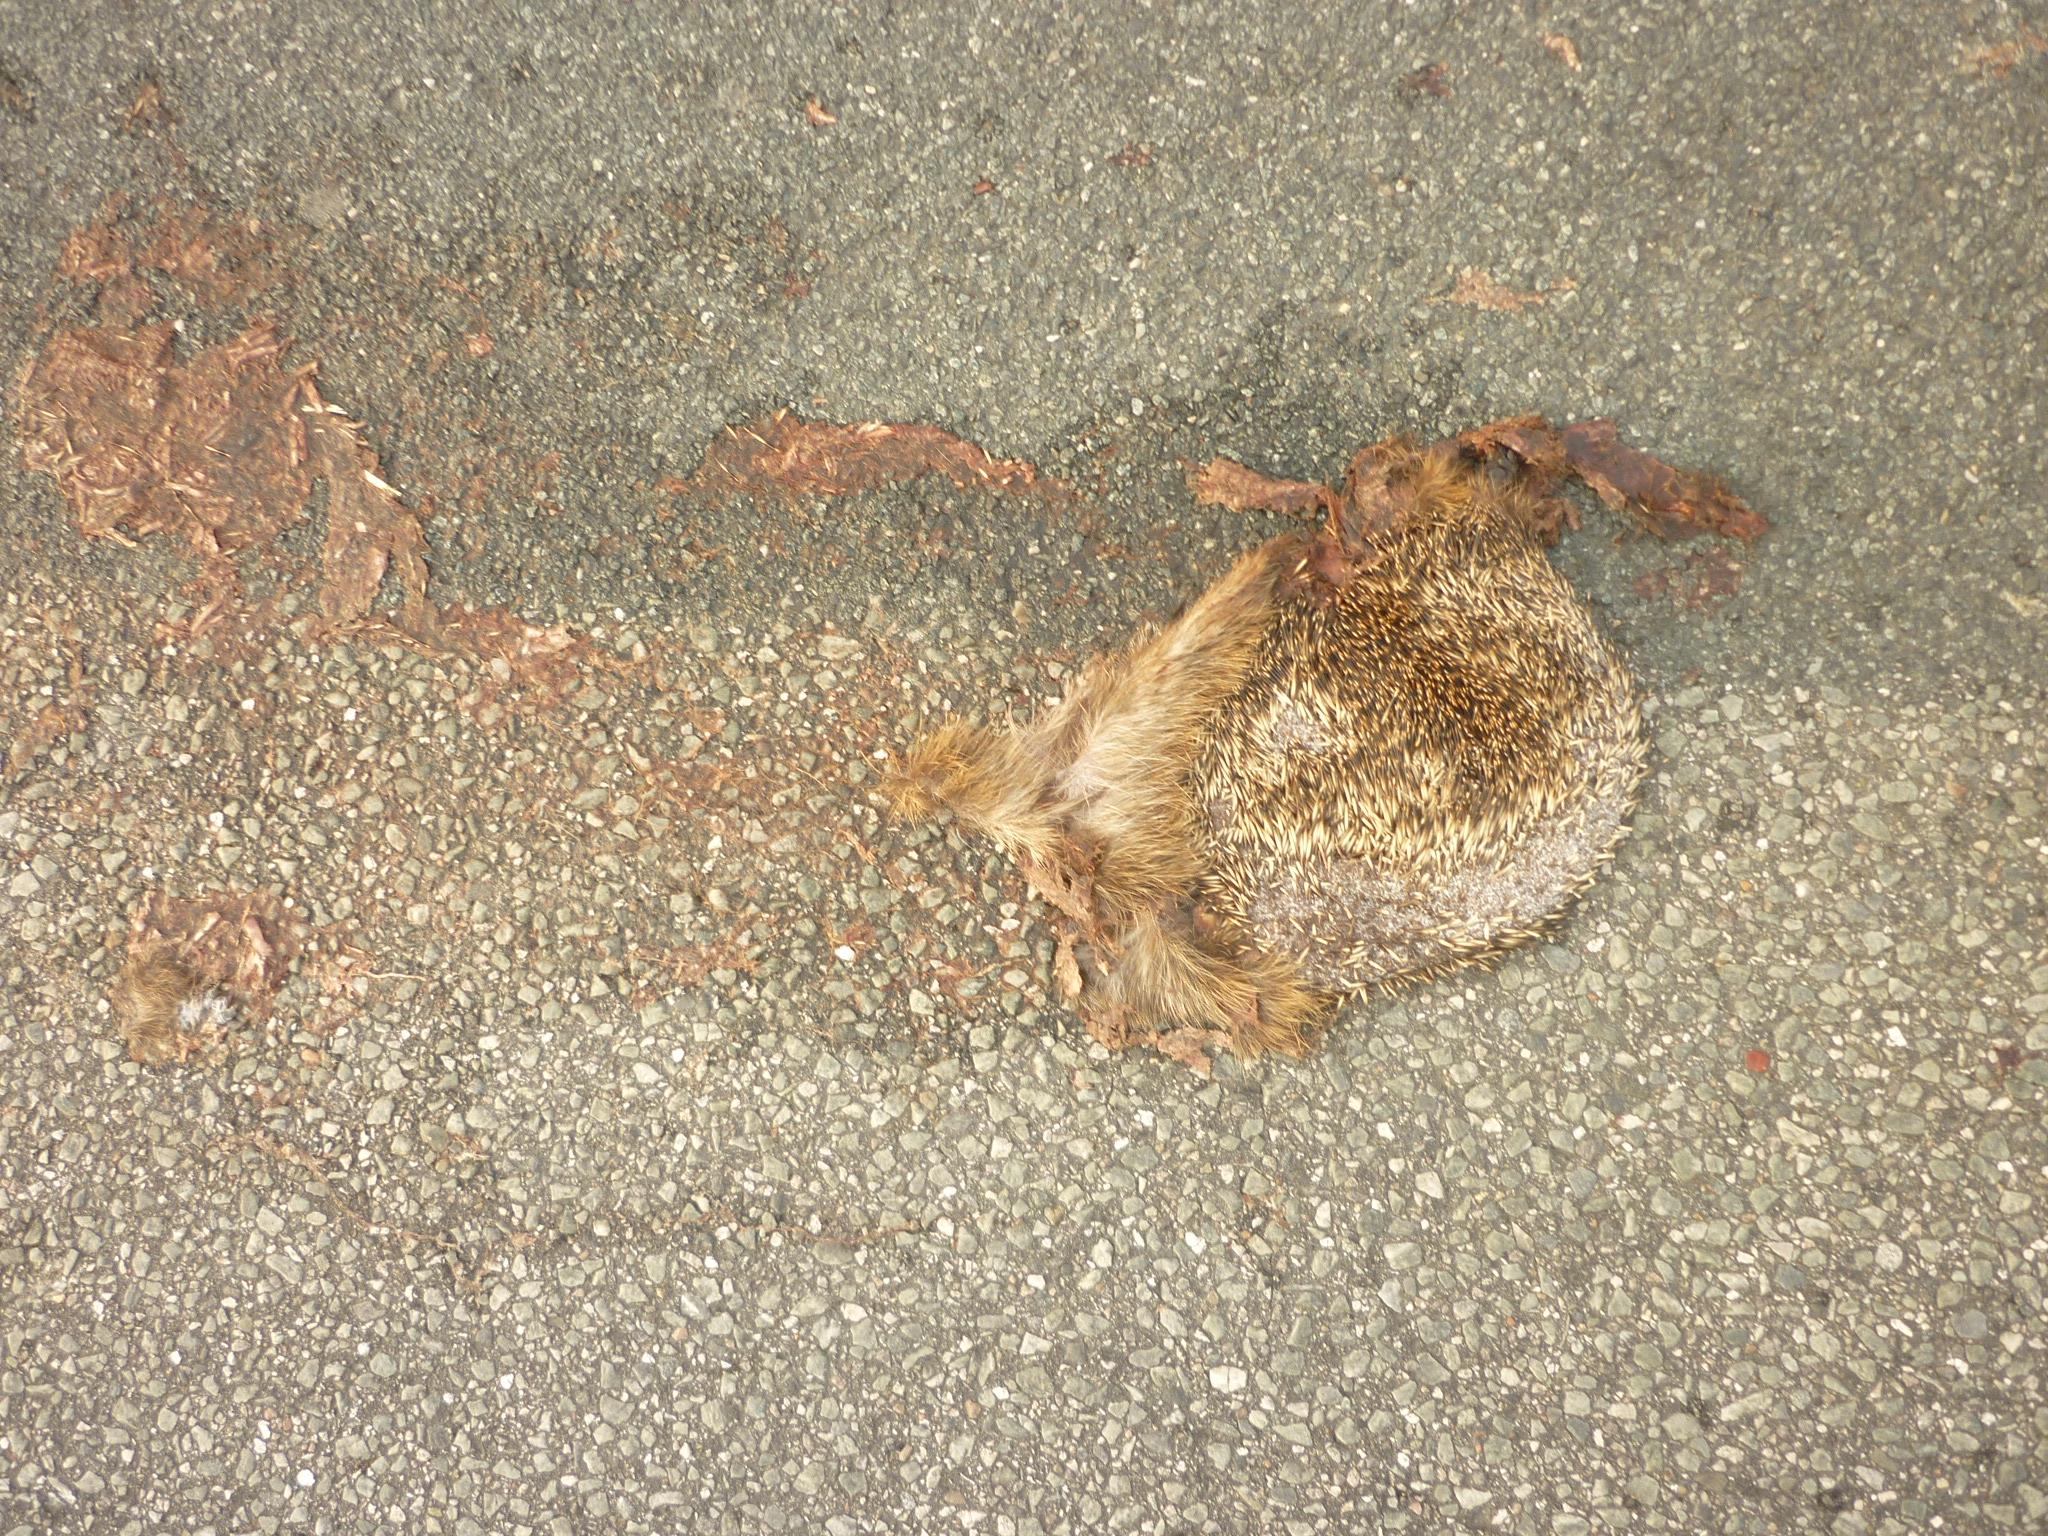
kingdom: Animalia
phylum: Chordata
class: Mammalia
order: Erinaceomorpha
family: Erinaceidae
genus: Erinaceus
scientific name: Erinaceus
